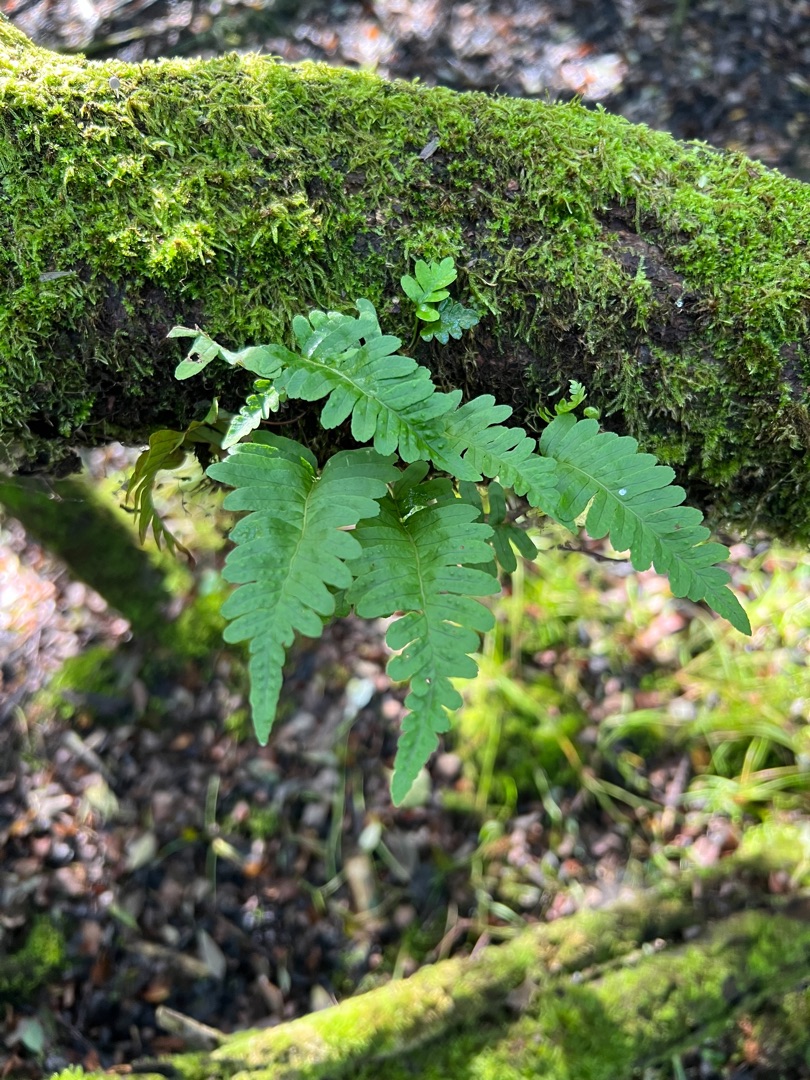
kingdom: Plantae
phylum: Tracheophyta
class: Polypodiopsida
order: Polypodiales
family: Polypodiaceae
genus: Polypodium
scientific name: Polypodium vulgare
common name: Almindelig engelsød
